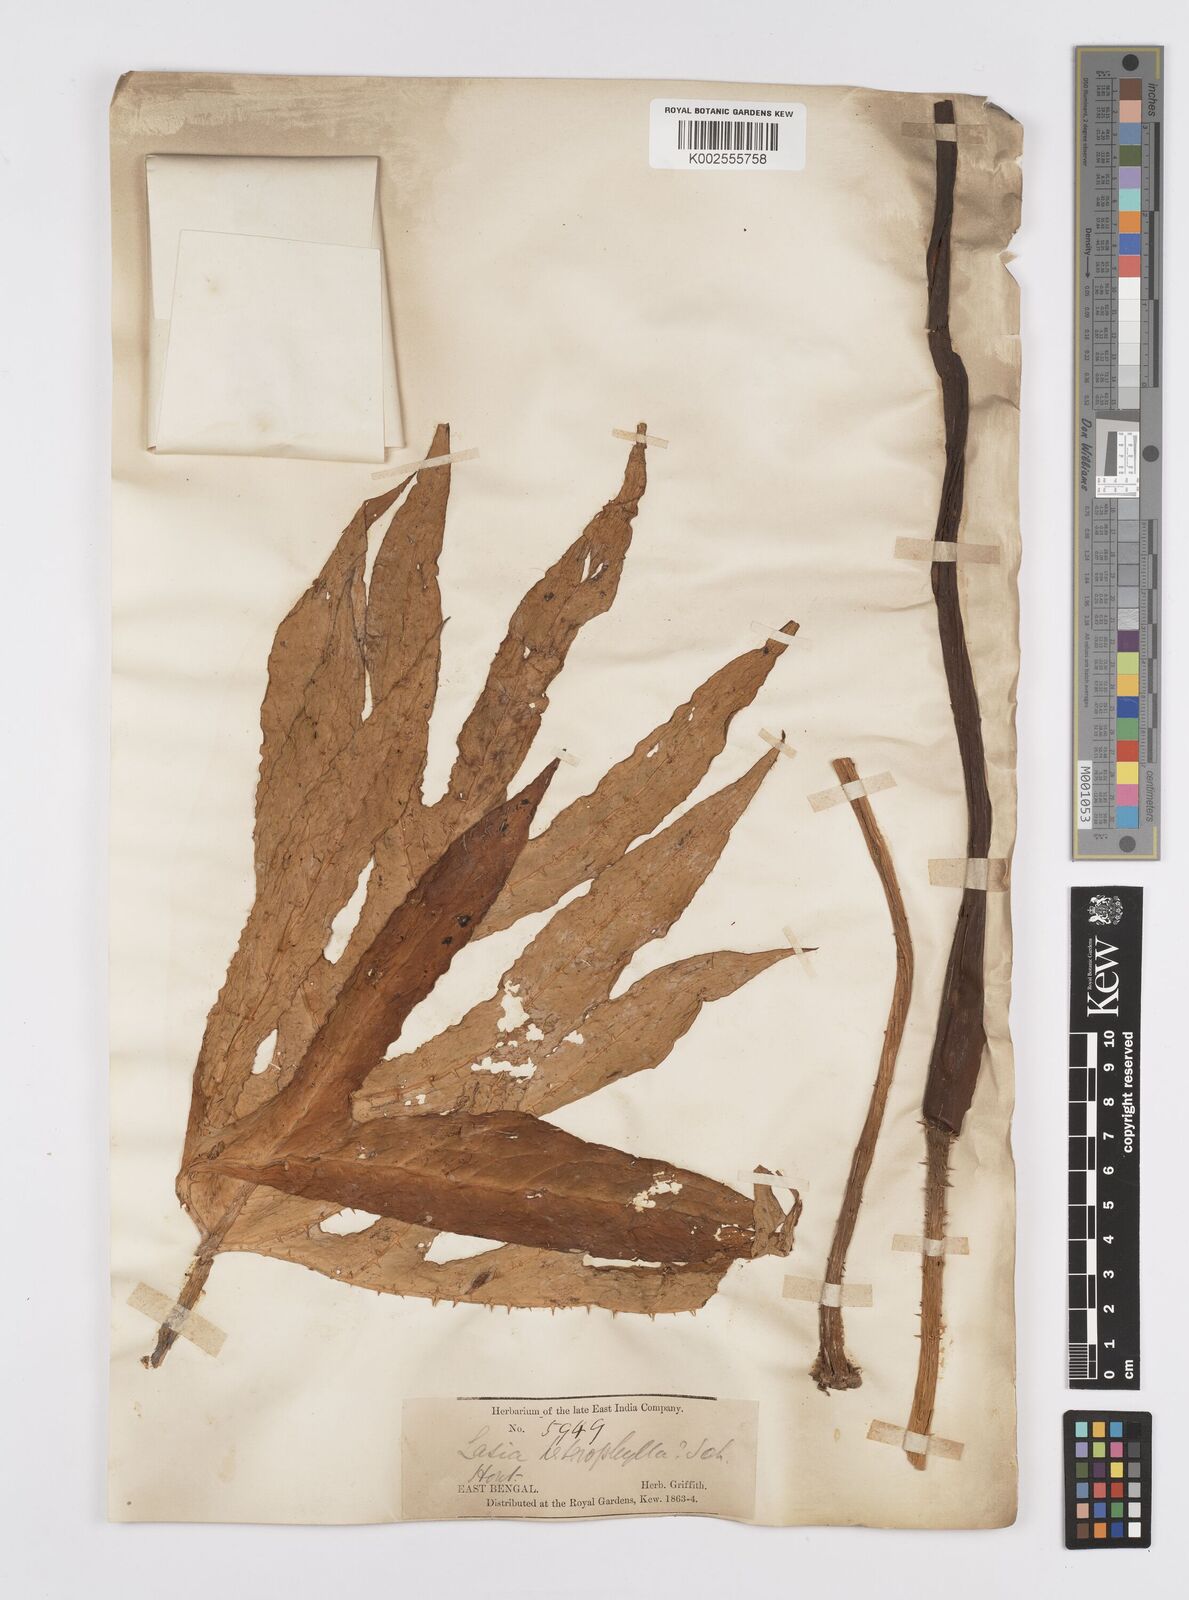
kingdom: Plantae
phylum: Tracheophyta
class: Liliopsida
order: Alismatales
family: Araceae
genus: Lasia
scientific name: Lasia spinosa
